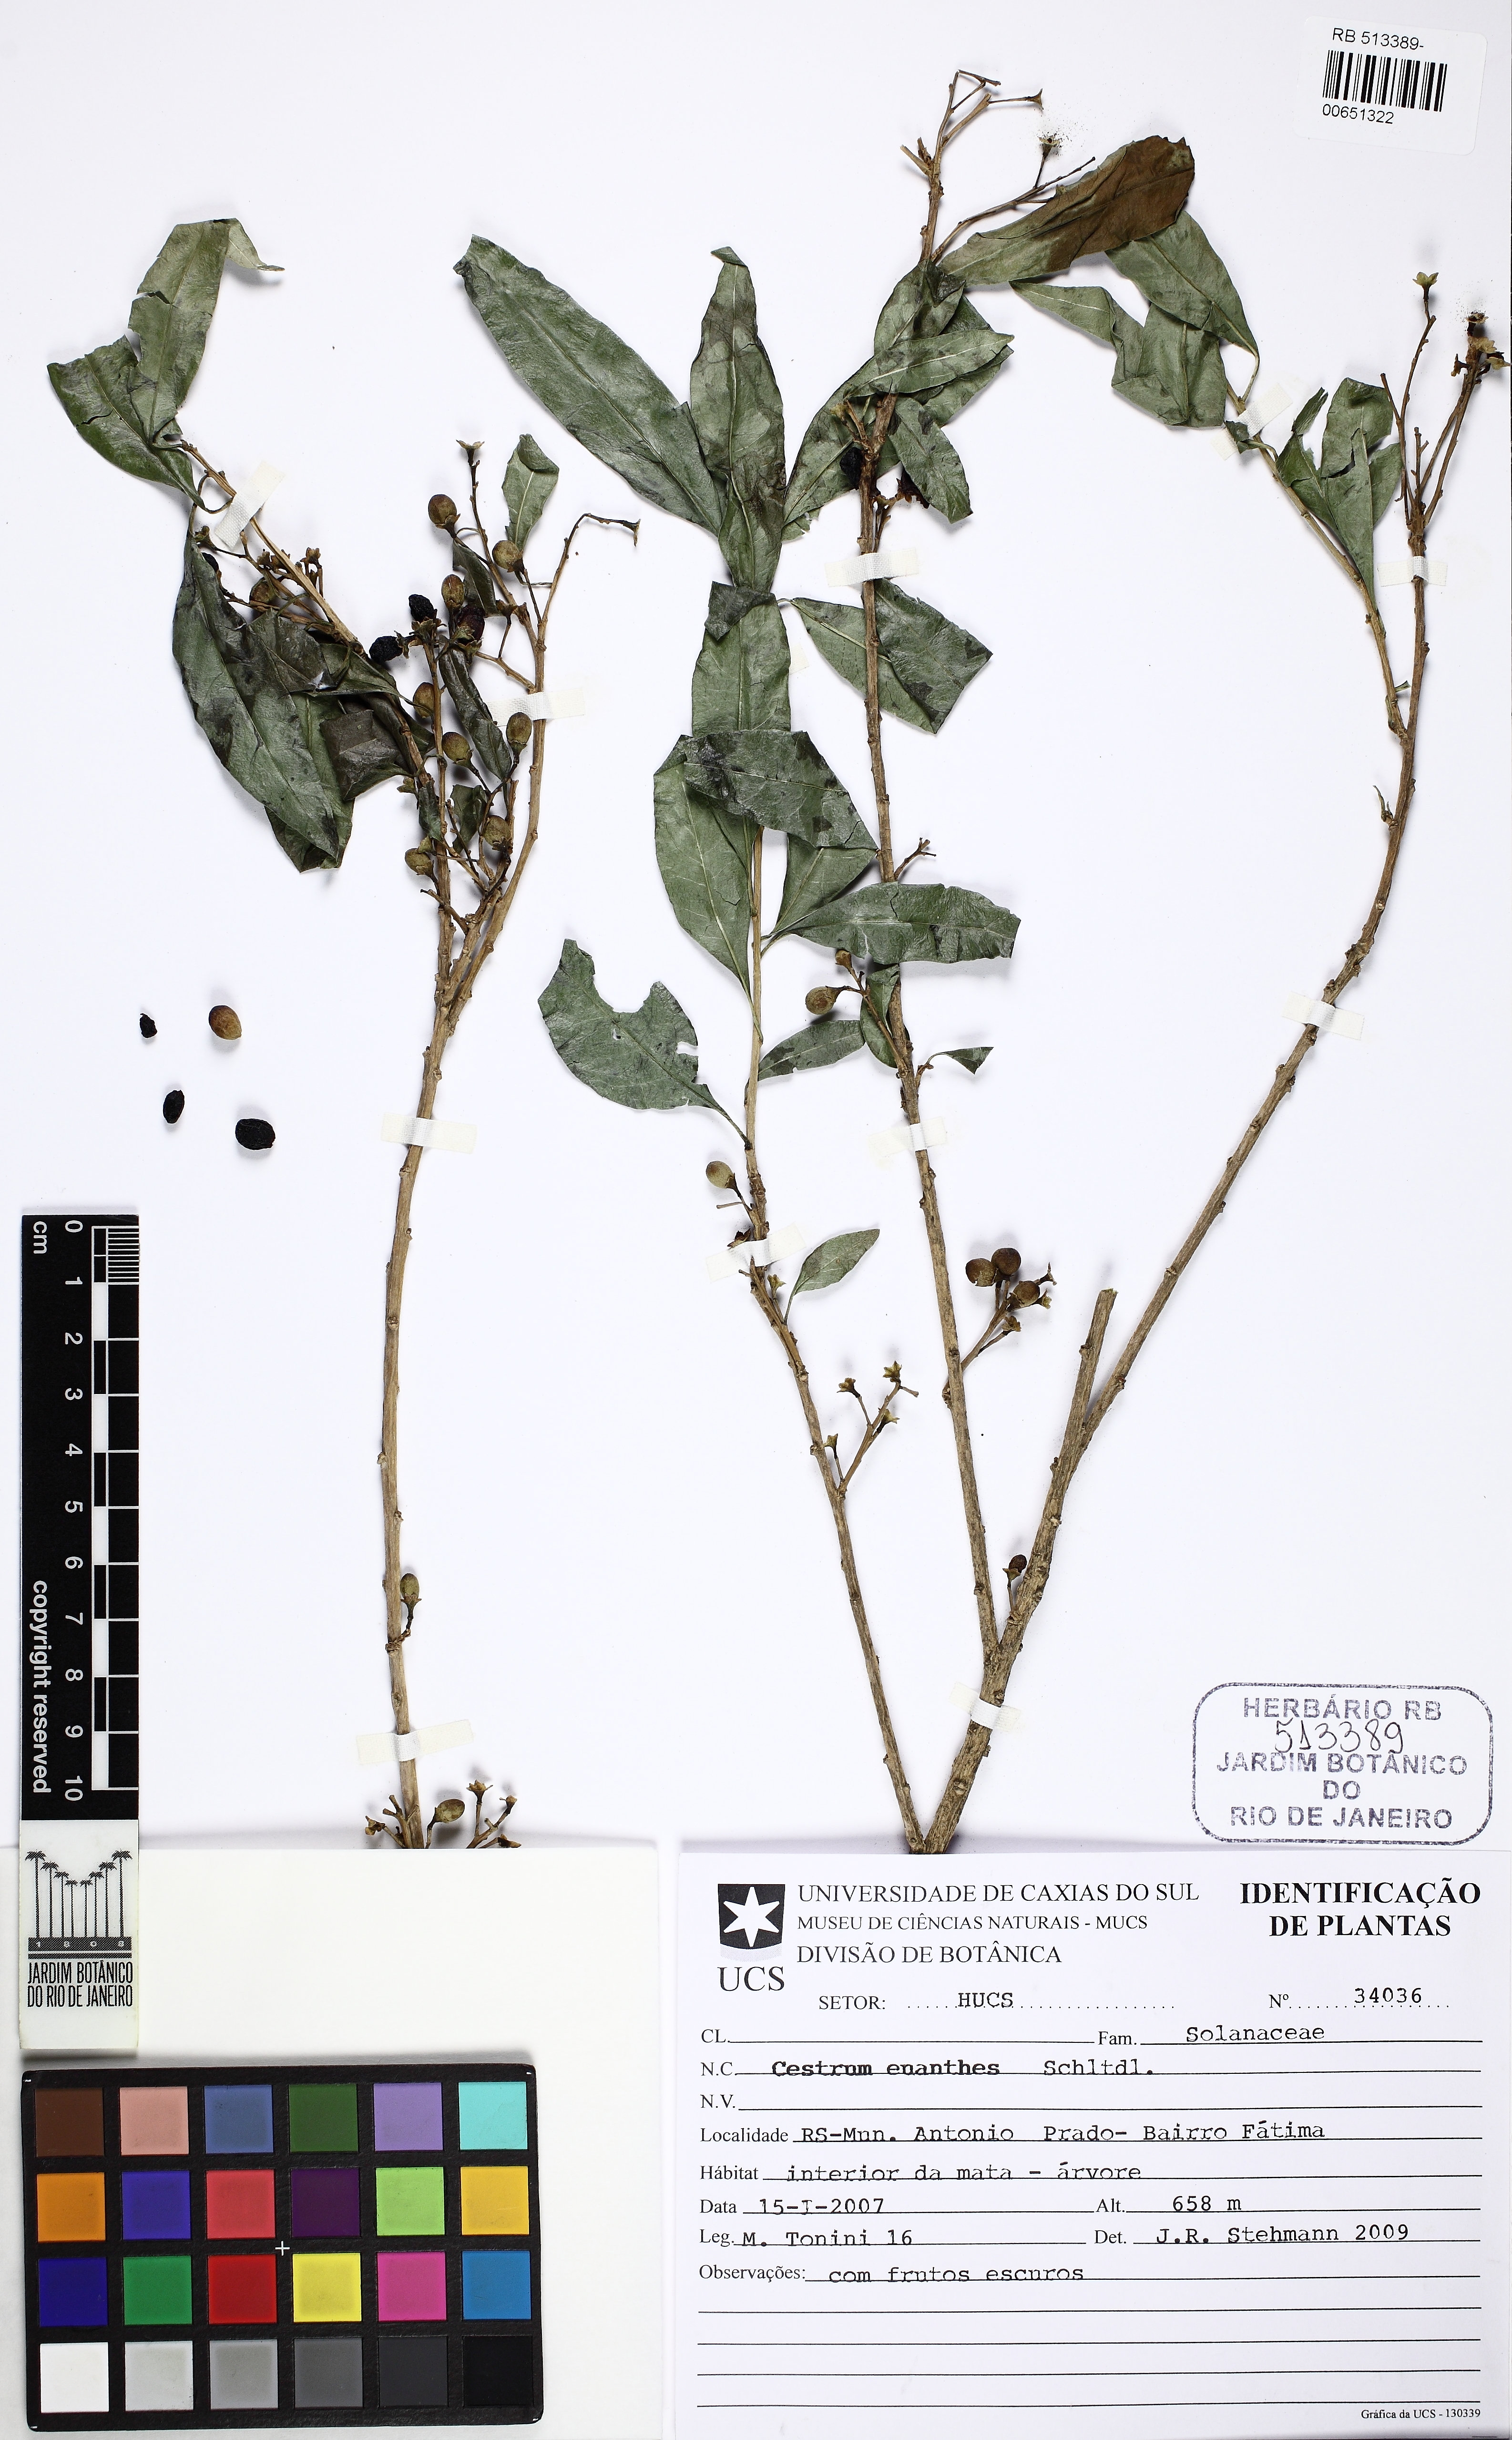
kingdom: Plantae
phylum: Tracheophyta
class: Magnoliopsida
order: Solanales
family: Solanaceae
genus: Cestrum
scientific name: Cestrum euanthes
